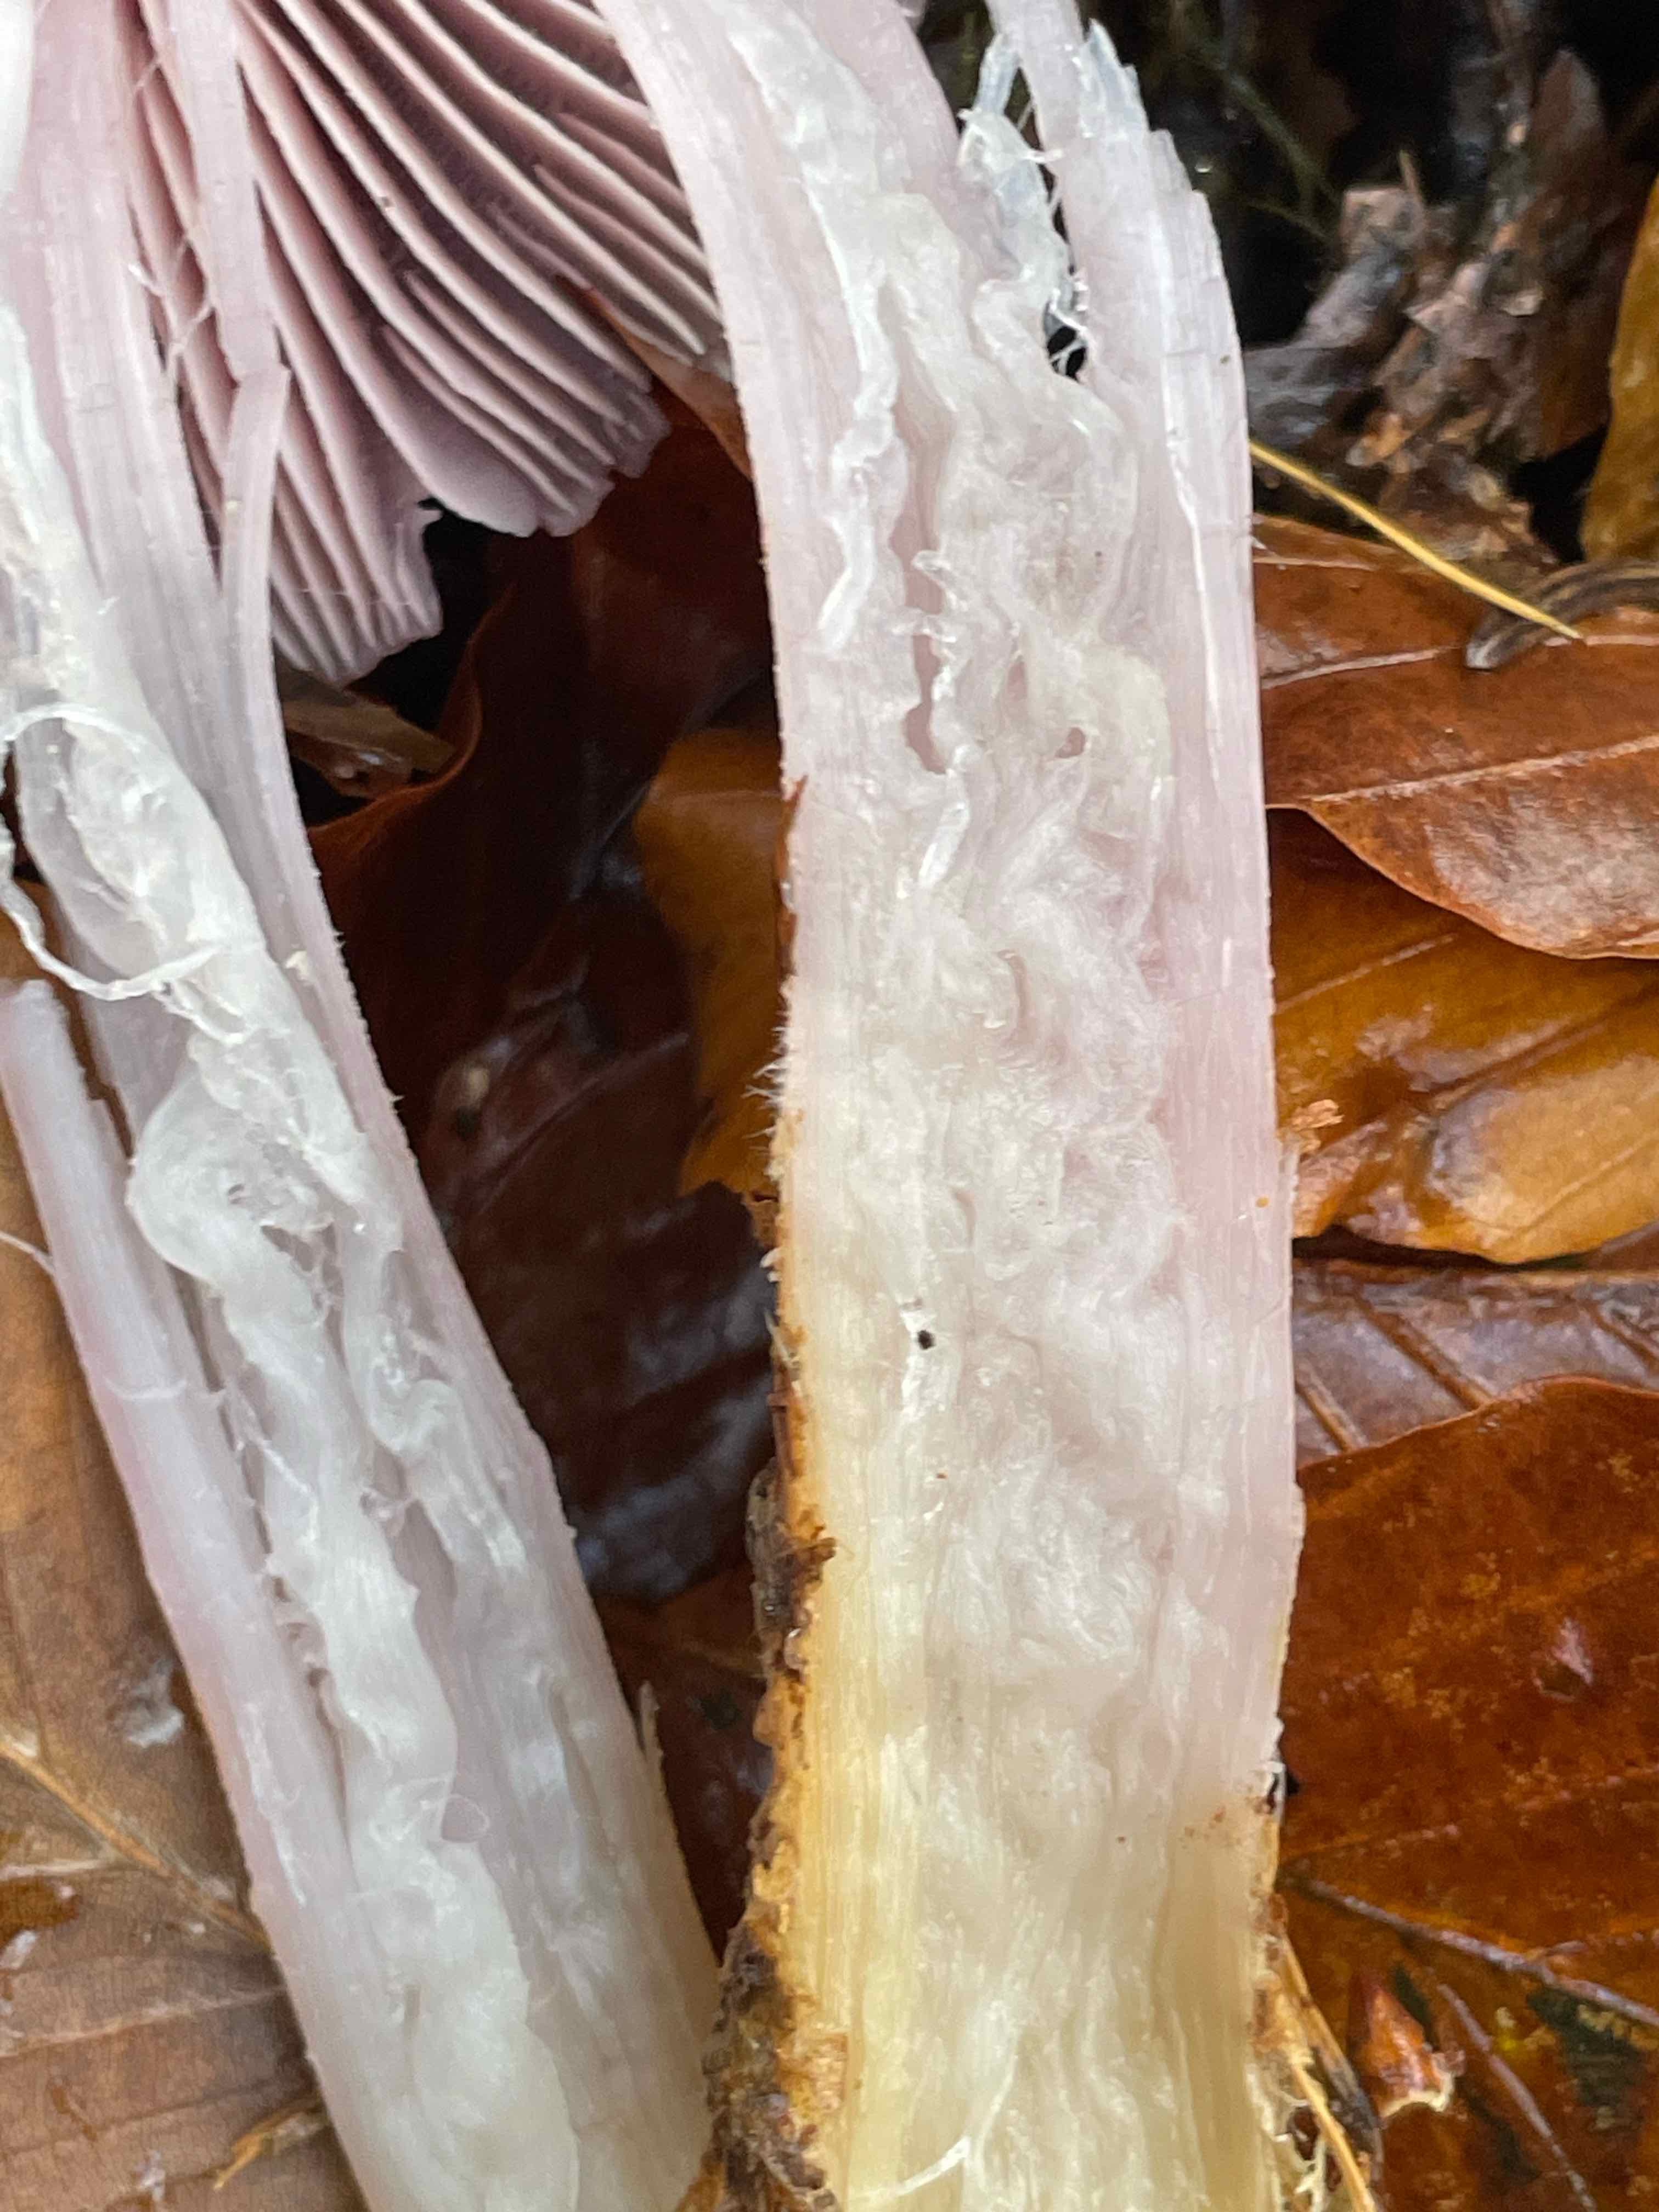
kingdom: Fungi
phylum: Basidiomycota
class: Agaricomycetes
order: Agaricales
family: Mycenaceae
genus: Mycena
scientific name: Mycena rosea
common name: rosa huesvamp
